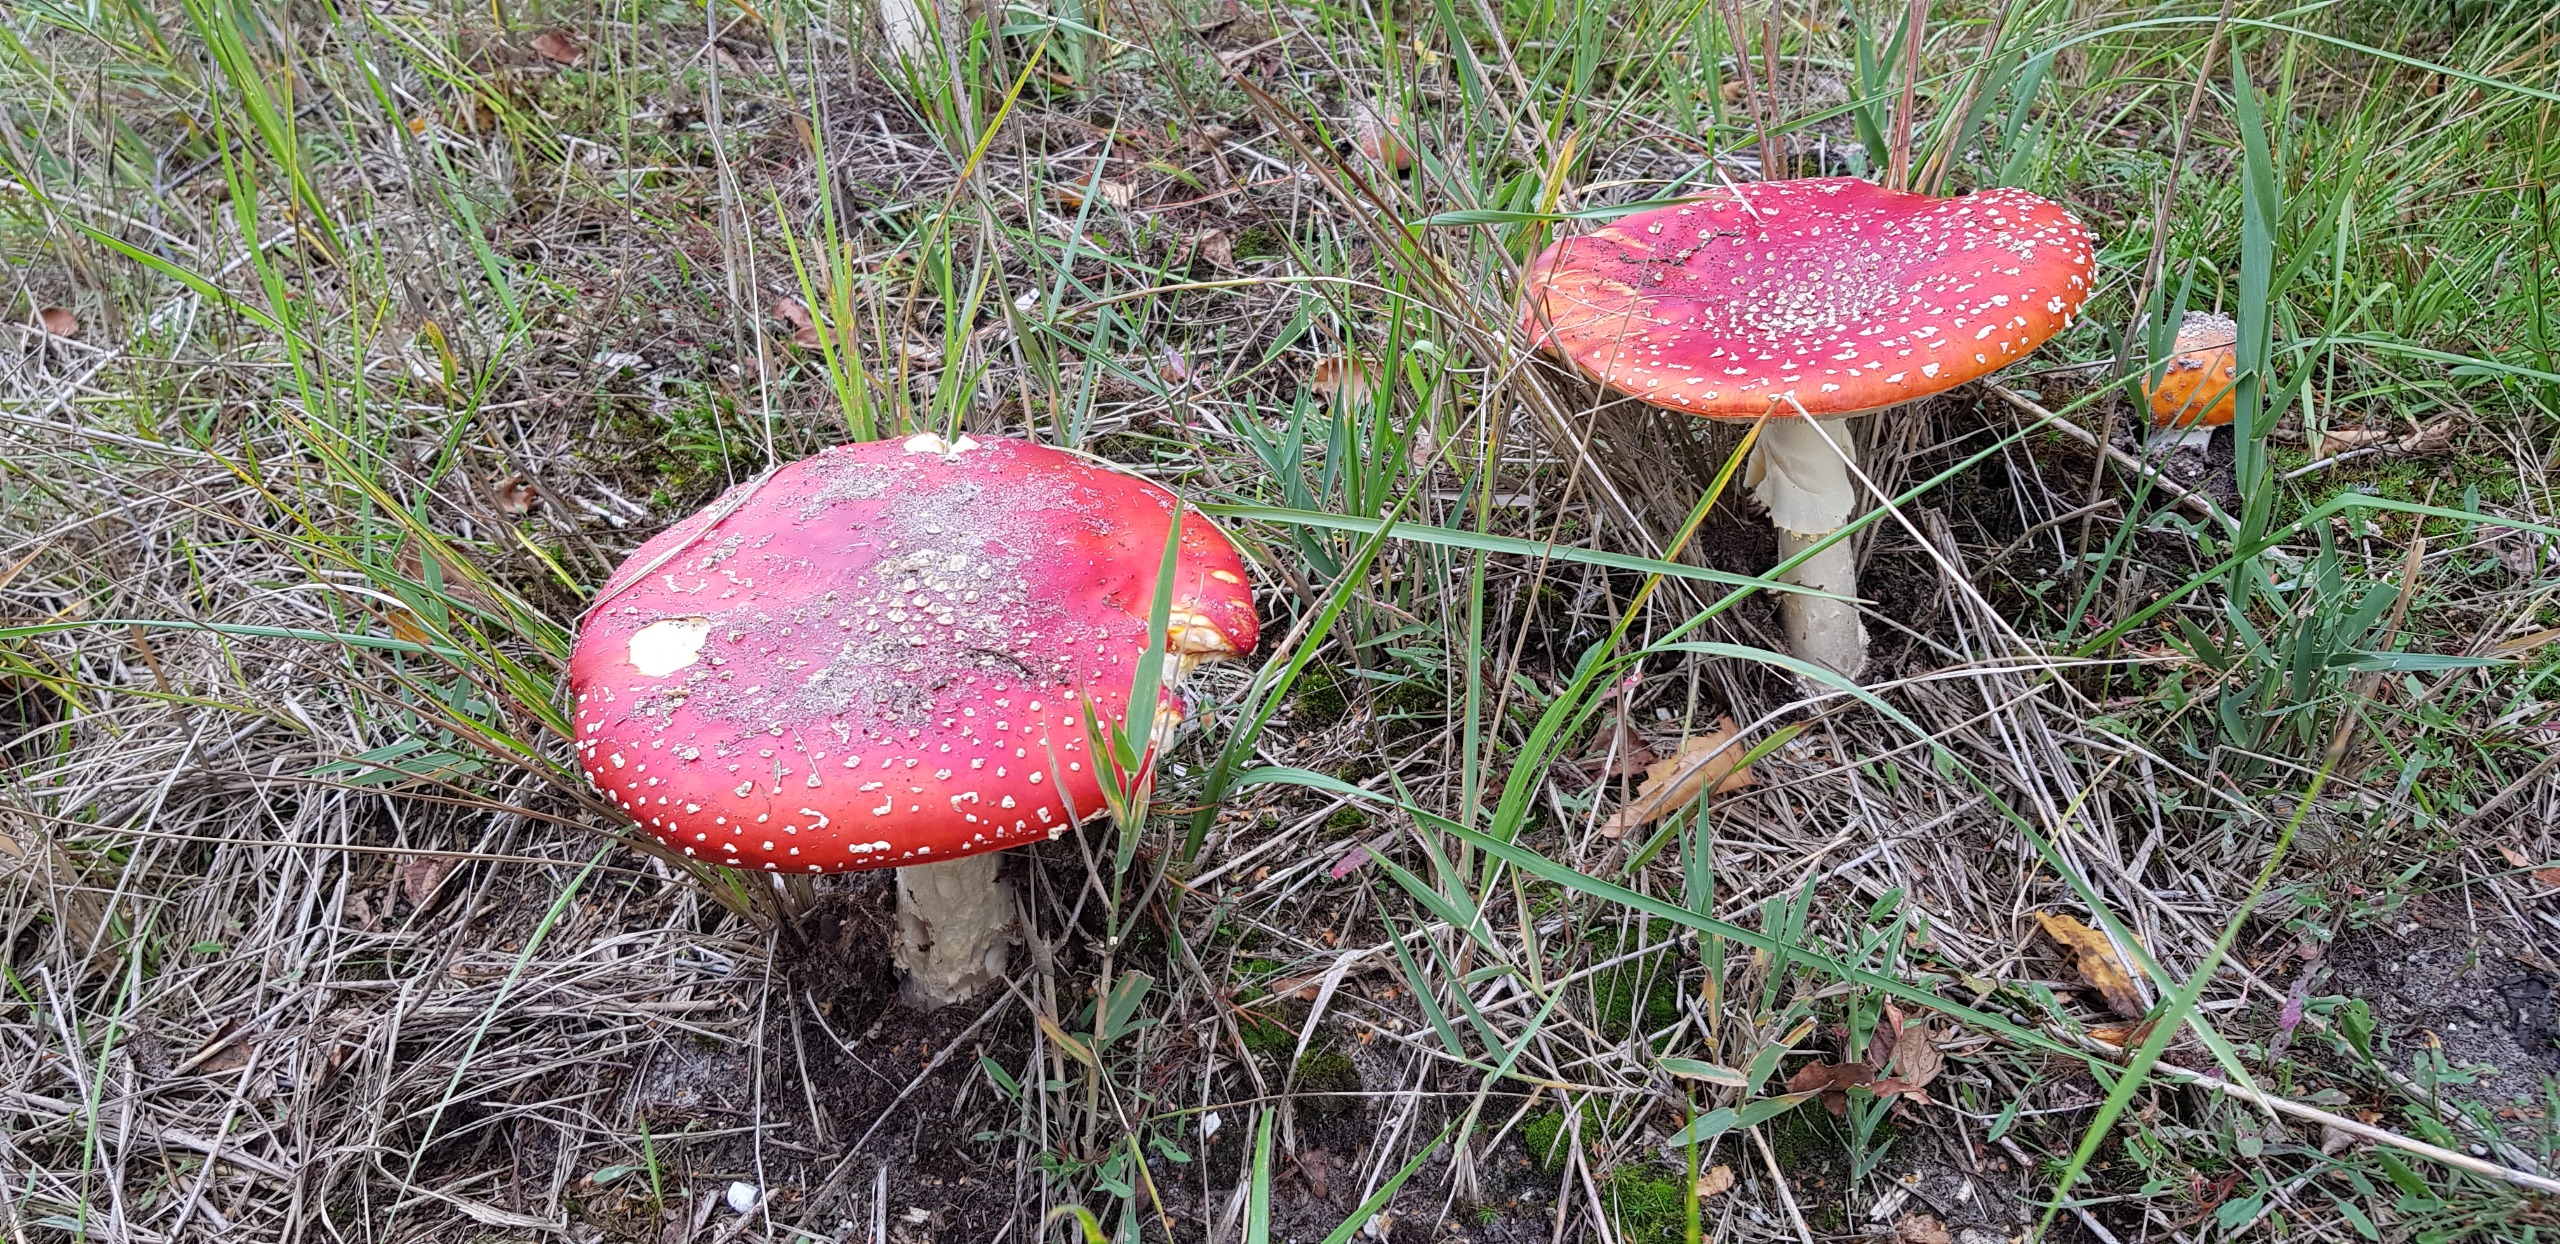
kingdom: Fungi
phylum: Basidiomycota
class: Agaricomycetes
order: Agaricales
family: Amanitaceae
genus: Amanita
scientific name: Amanita muscaria
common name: Rød fluesvamp
